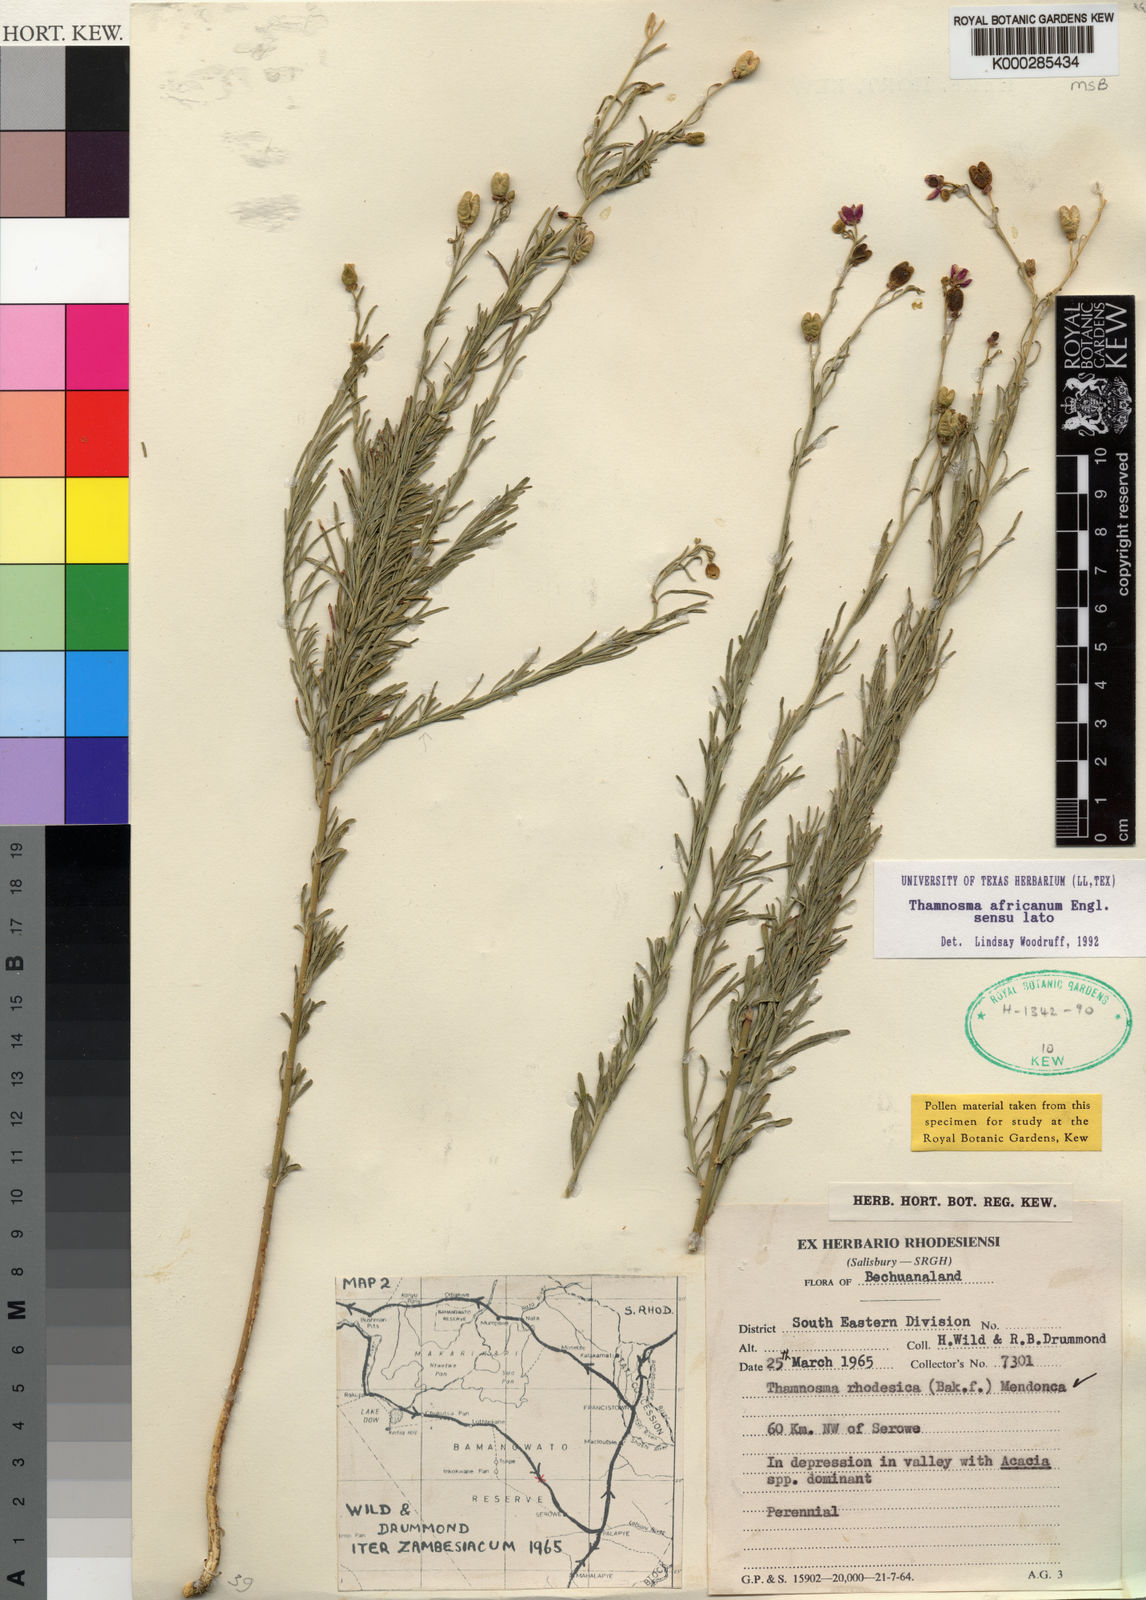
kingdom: Plantae
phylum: Tracheophyta
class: Magnoliopsida
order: Sapindales
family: Rutaceae
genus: Thamnosma
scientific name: Thamnosma rhodesica
